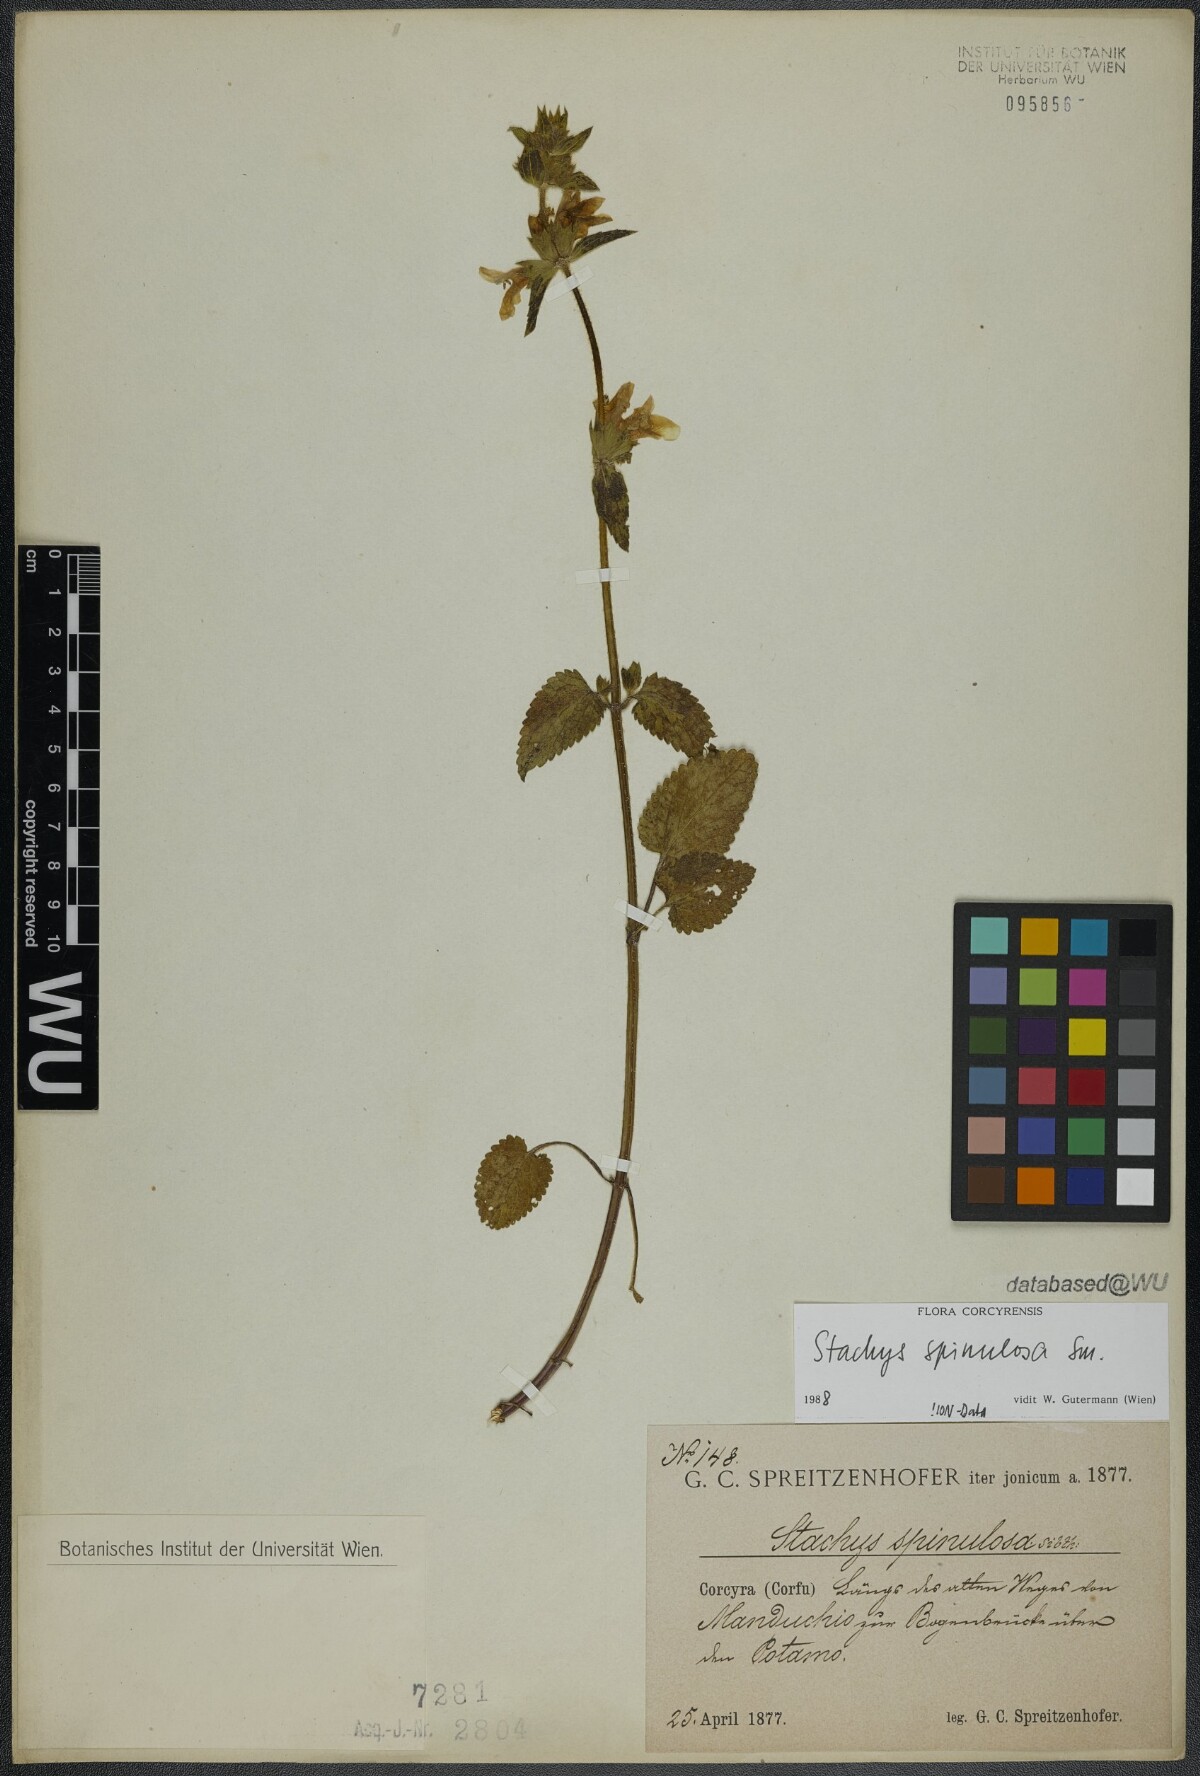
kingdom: Plantae
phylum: Tracheophyta
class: Magnoliopsida
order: Lamiales
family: Lamiaceae
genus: Stachys
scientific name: Stachys spinulosa
